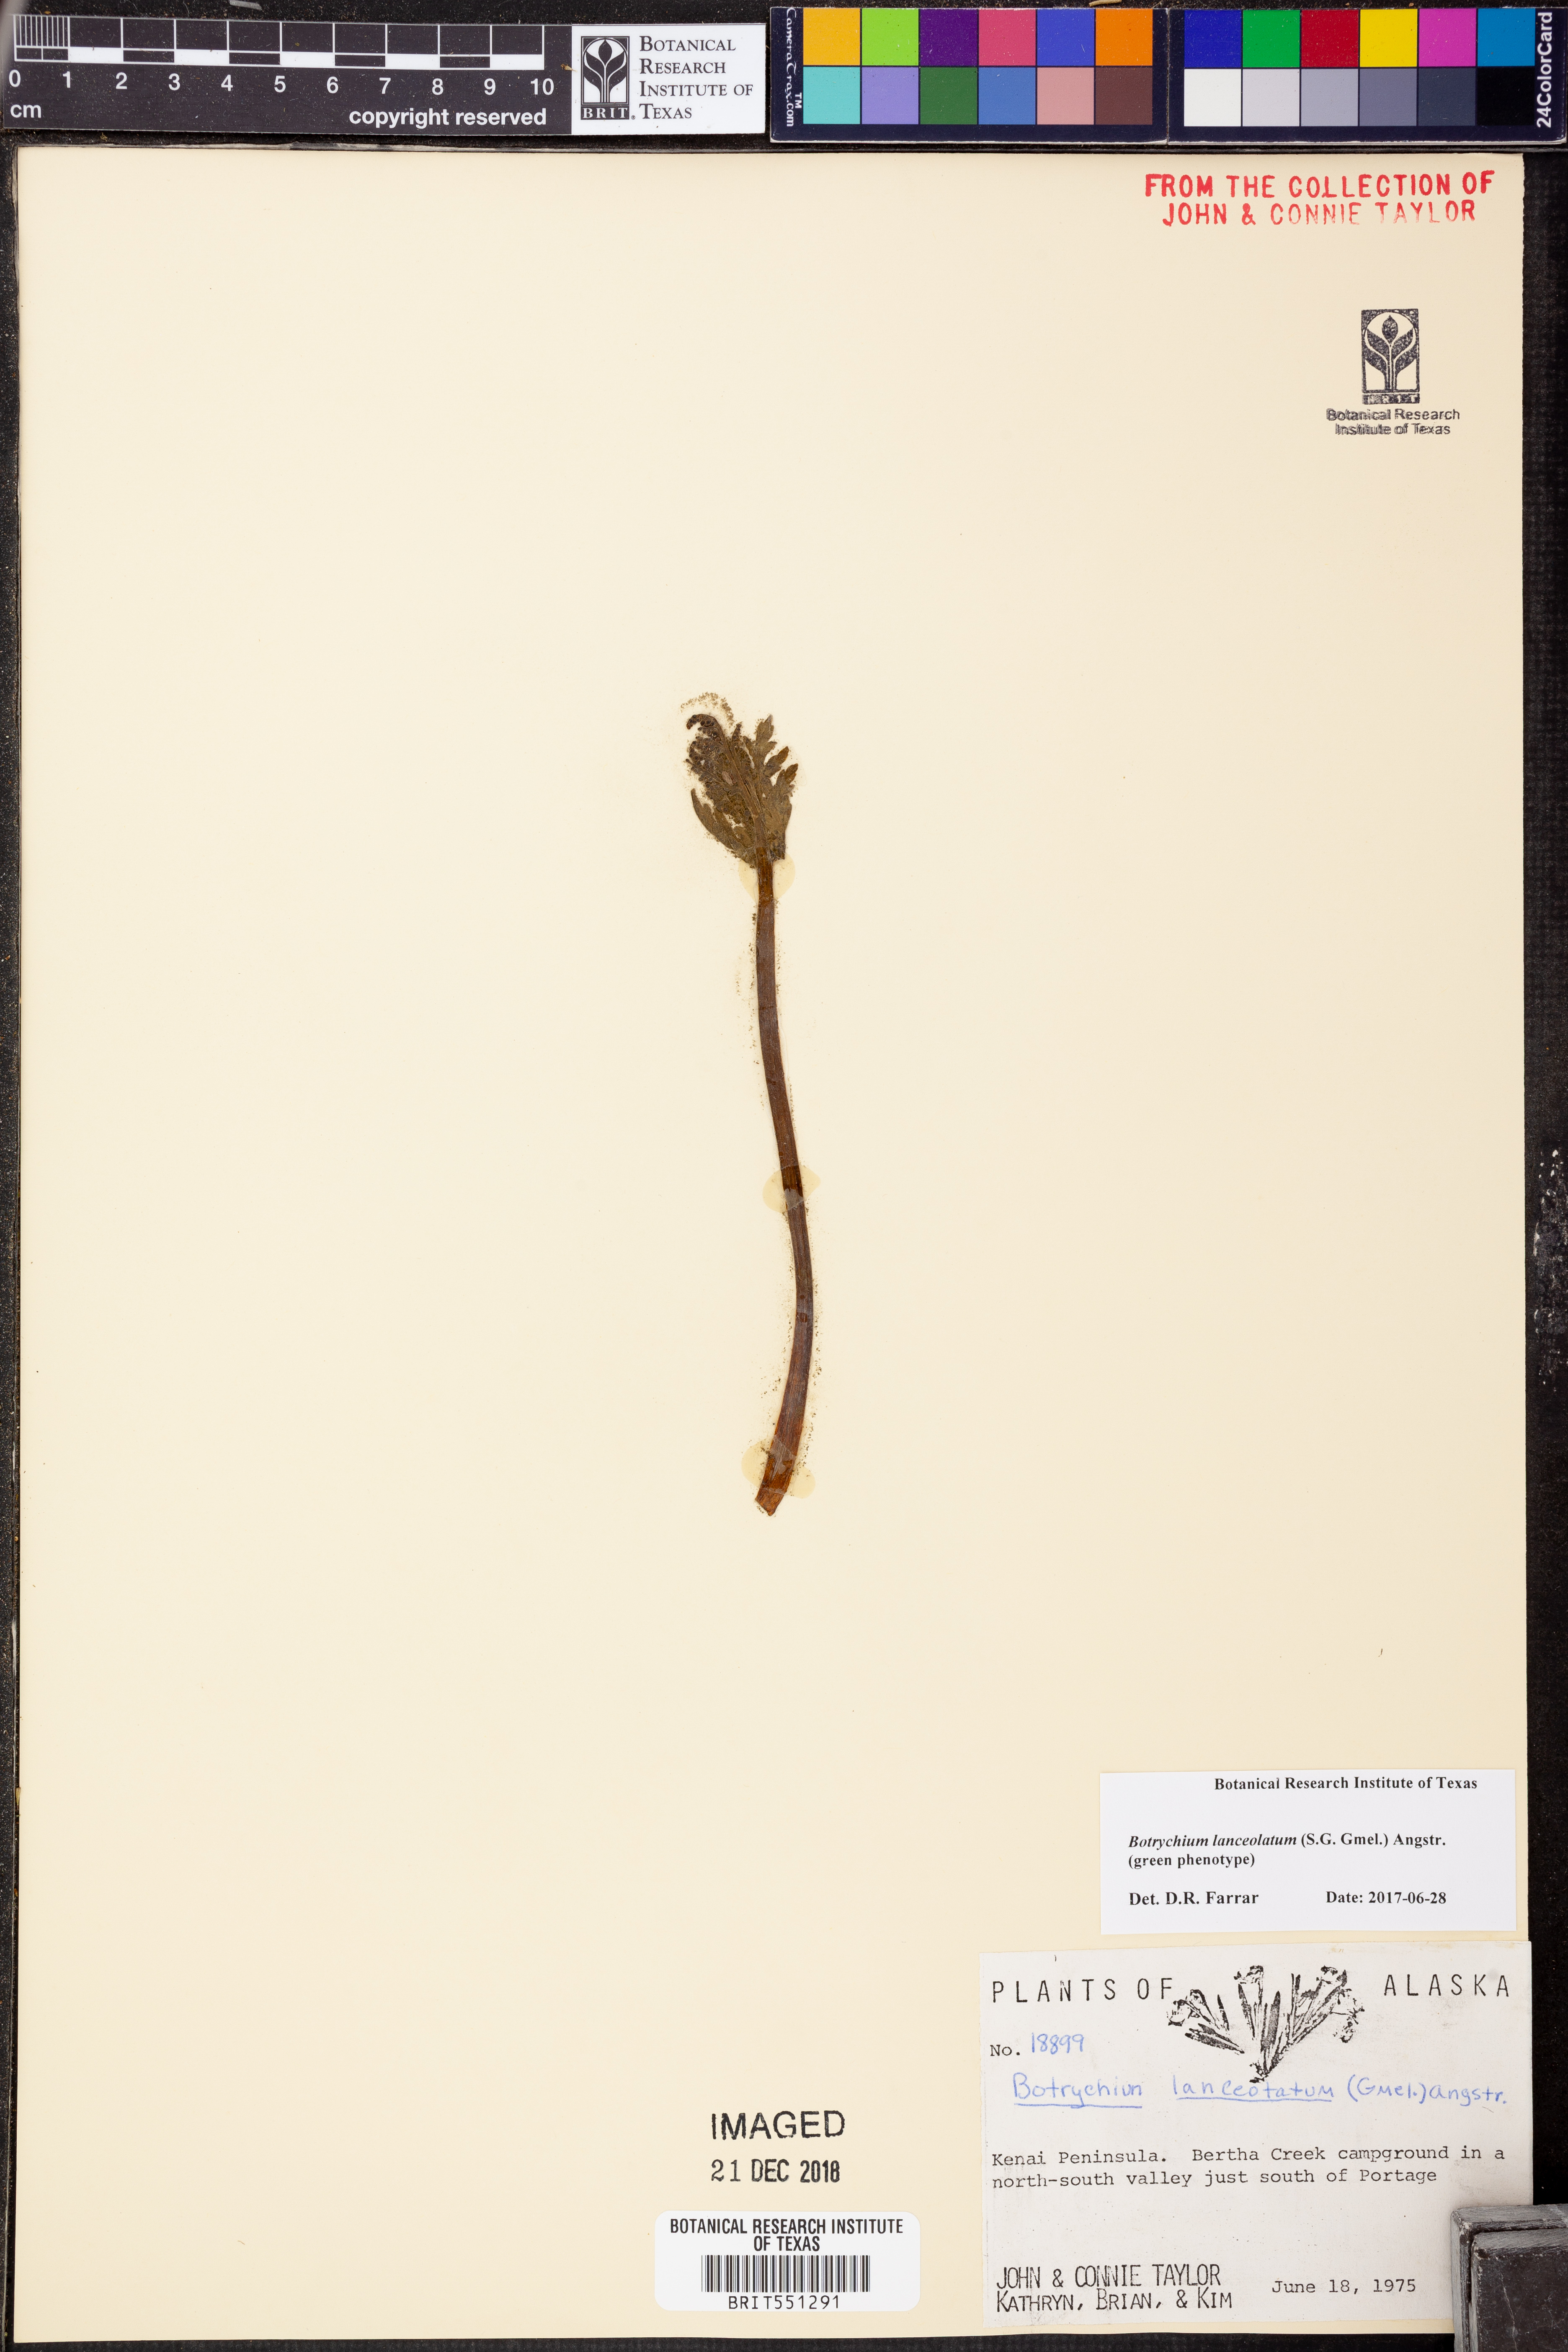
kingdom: Plantae
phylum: Tracheophyta
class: Polypodiopsida
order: Ophioglossales
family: Ophioglossaceae
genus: Botrychium
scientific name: Botrychium lanceolatum
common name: Lance-leaved moonwort
